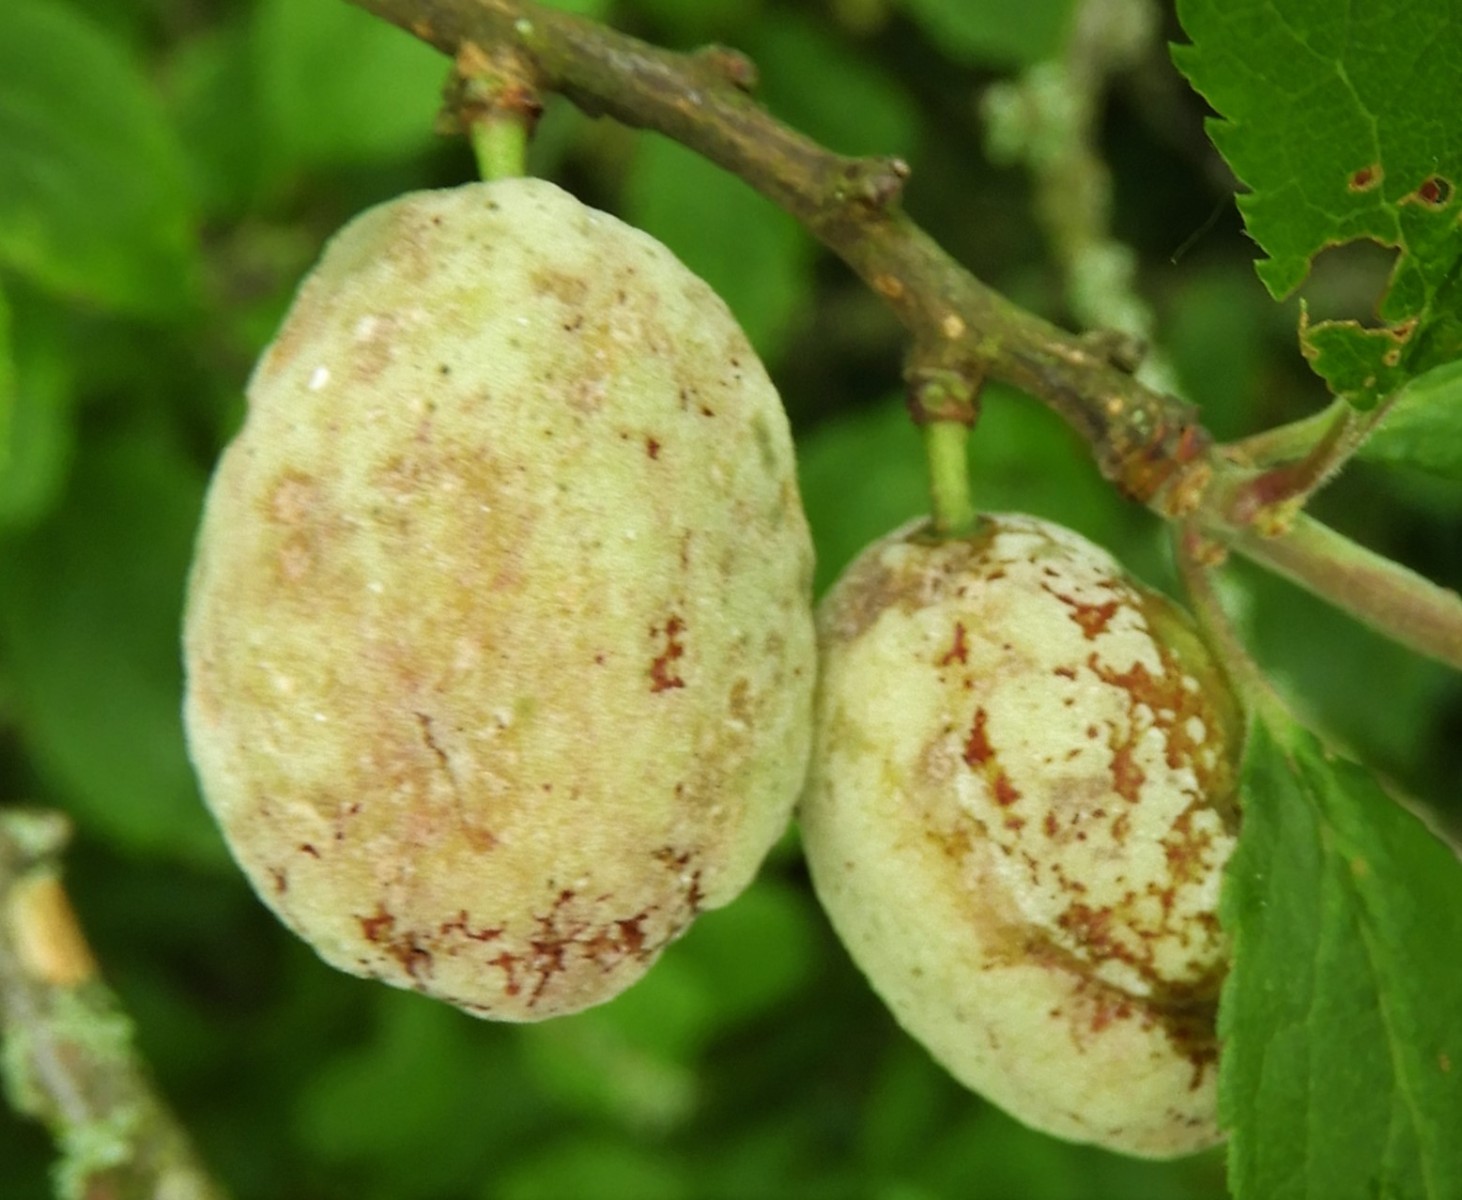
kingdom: Fungi
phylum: Ascomycota
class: Taphrinomycetes
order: Taphrinales
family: Taphrinaceae
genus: Taphrina
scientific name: Taphrina pruni
